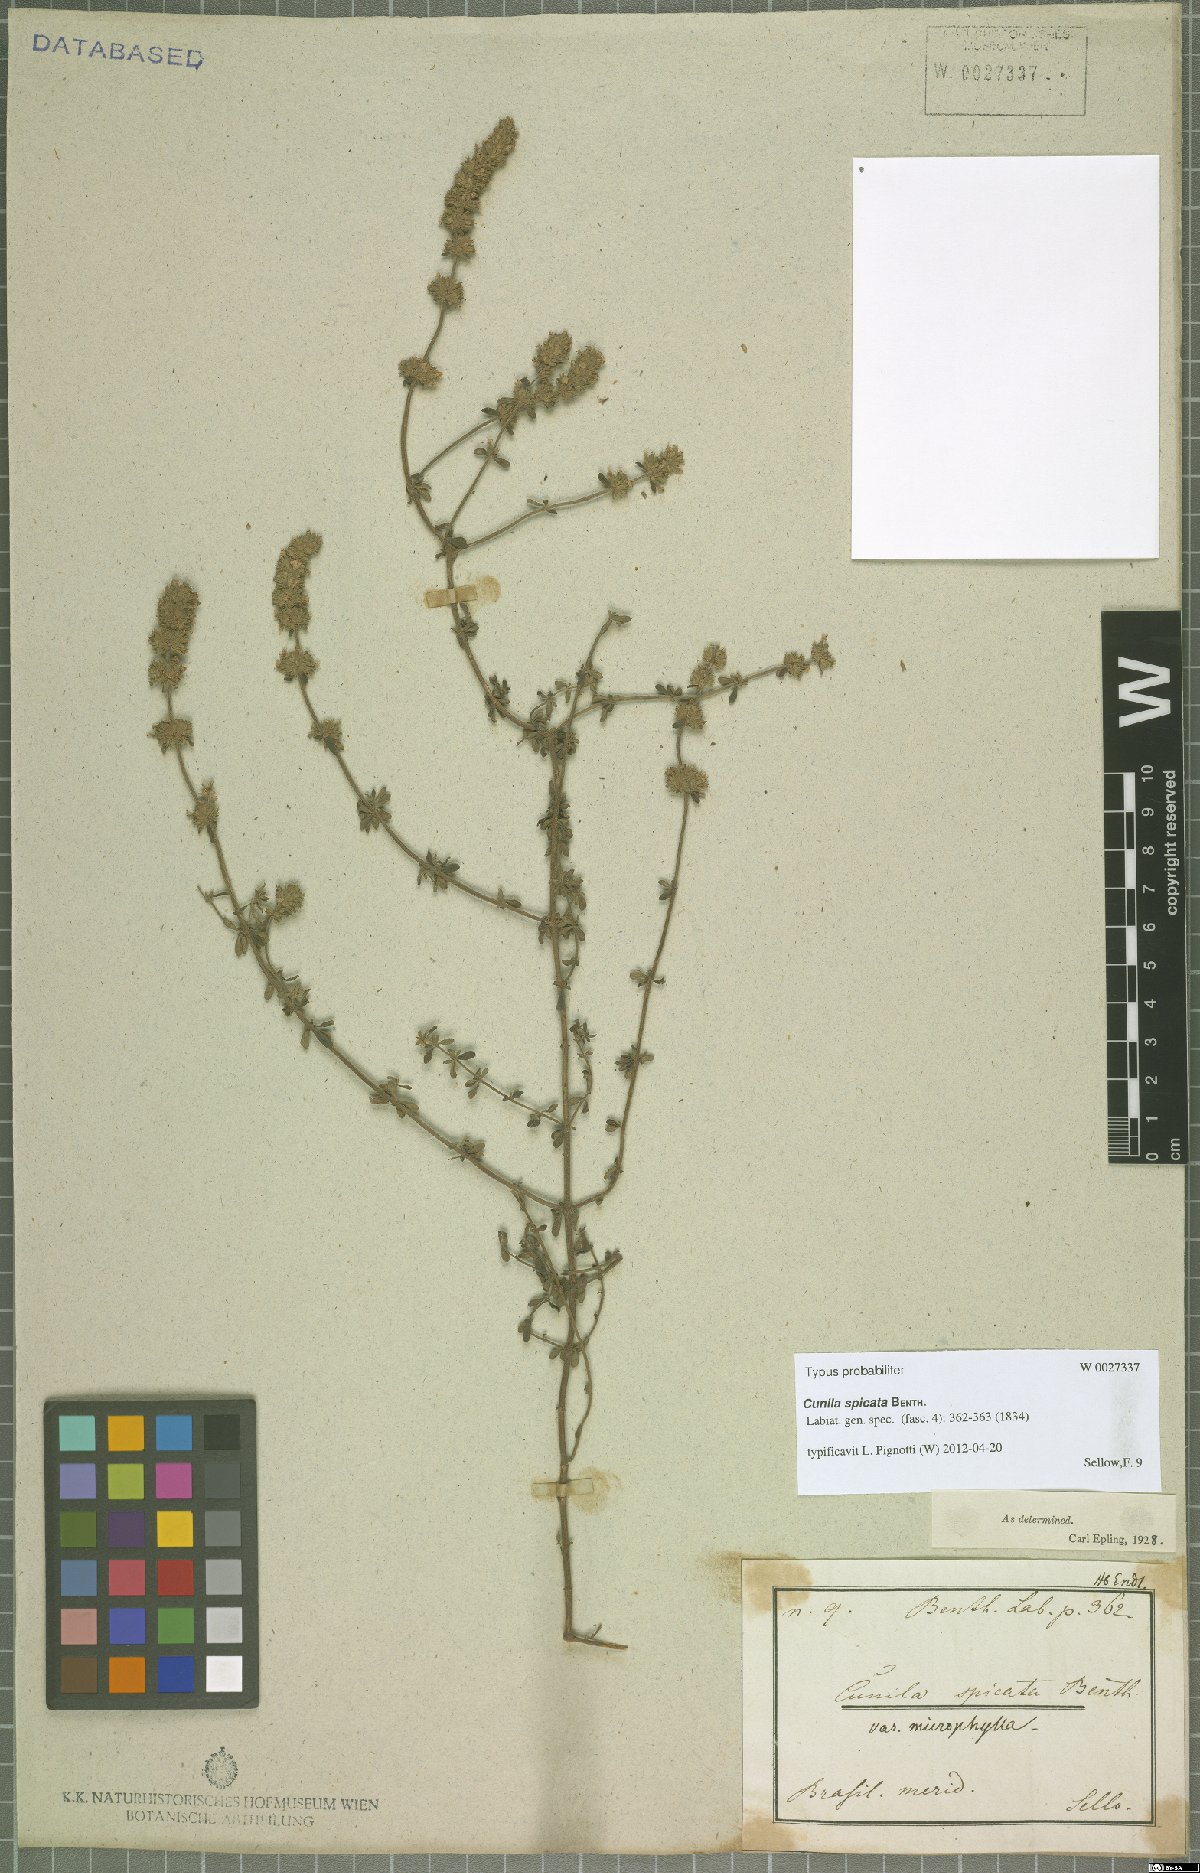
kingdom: Plantae
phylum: Tracheophyta
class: Magnoliopsida
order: Lamiales
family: Lamiaceae
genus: Cunila
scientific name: Cunila spicata
